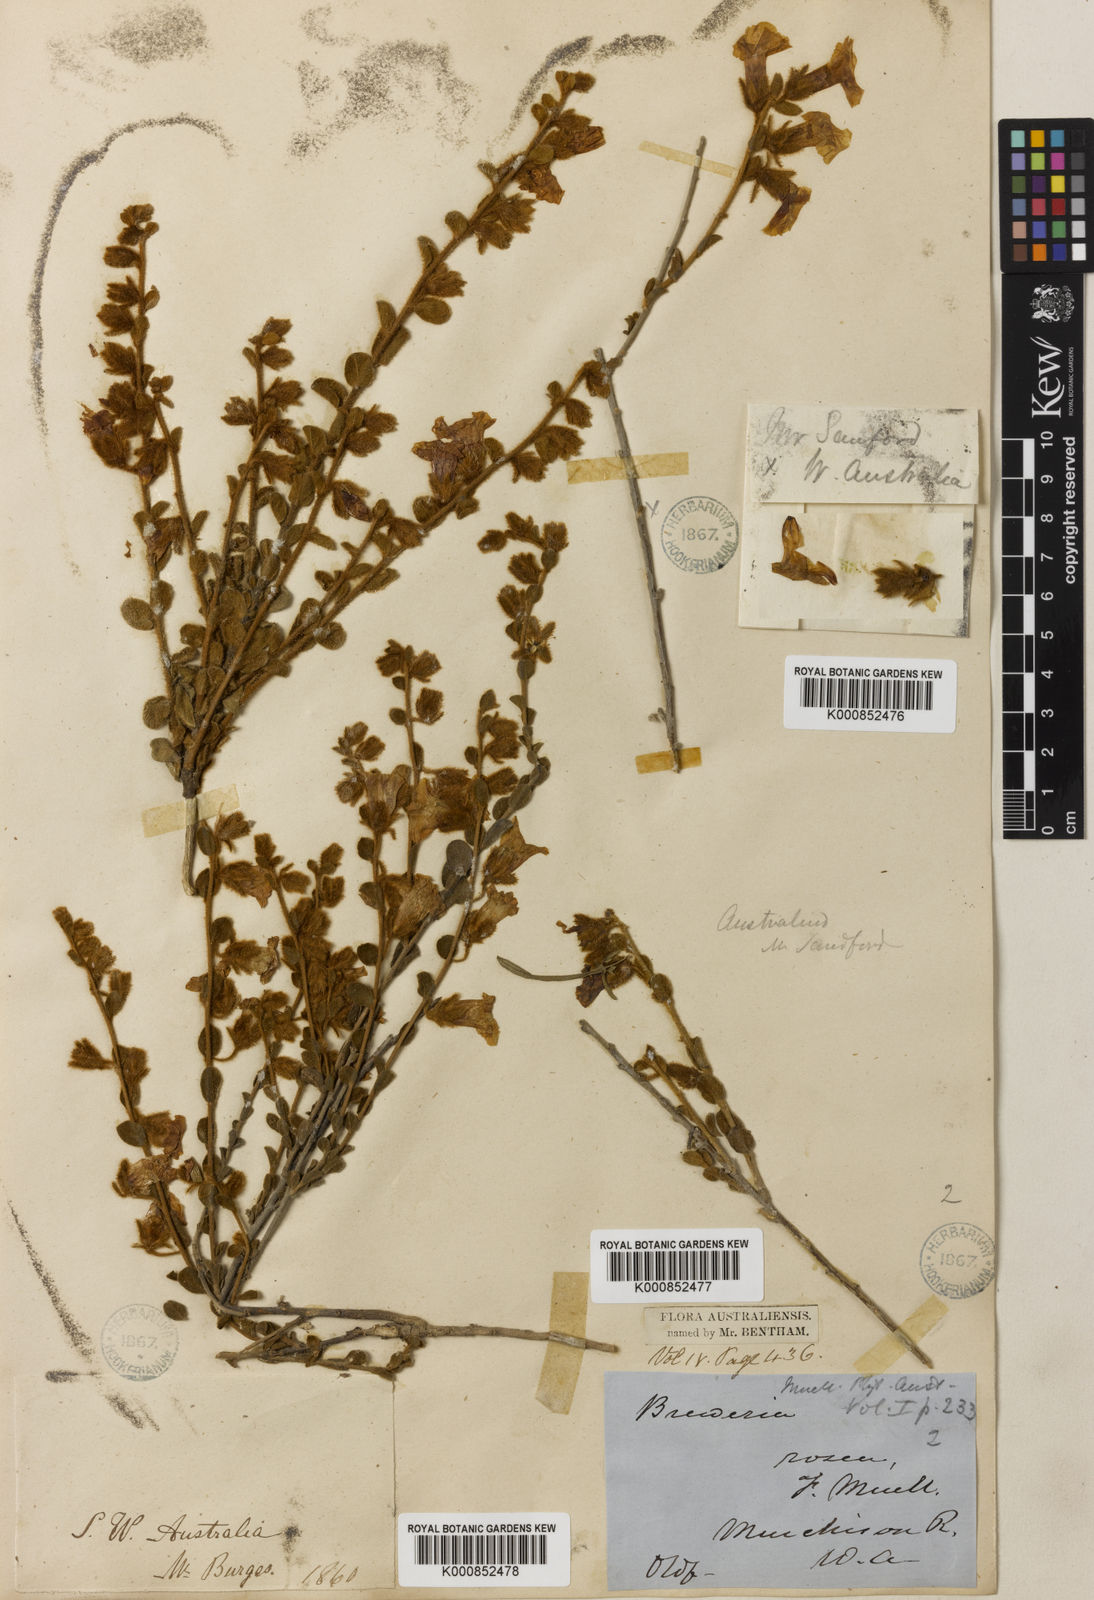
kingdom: Plantae
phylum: Tracheophyta
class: Magnoliopsida
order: Solanales
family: Convolvulaceae
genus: Bonamia
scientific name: Bonamia rosea
